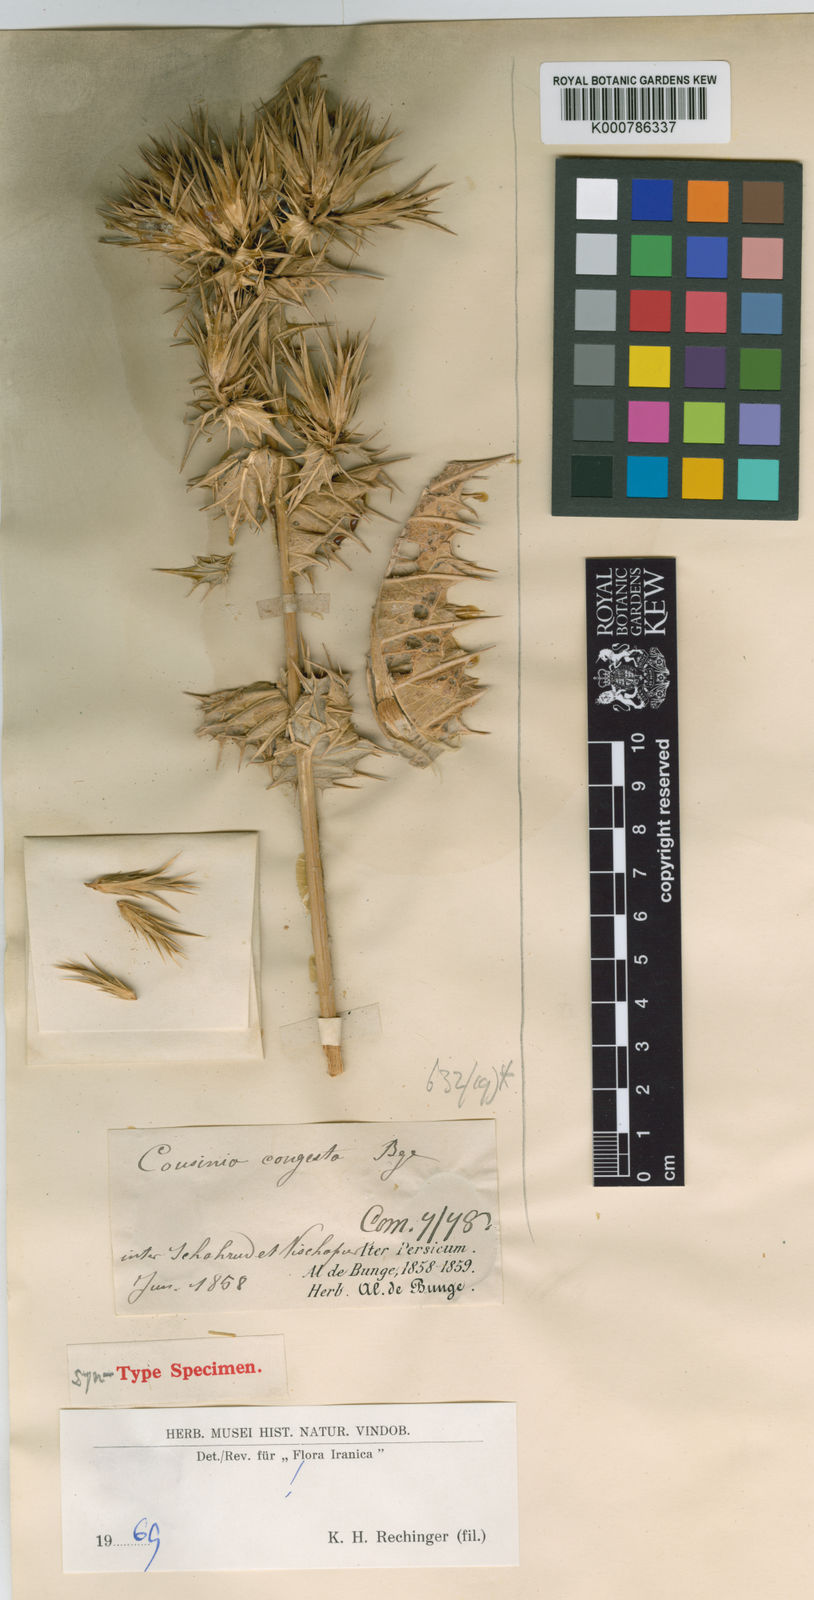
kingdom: Plantae
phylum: Tracheophyta
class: Magnoliopsida
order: Asterales
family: Asteraceae
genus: Cousinia
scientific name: Cousinia congesta
